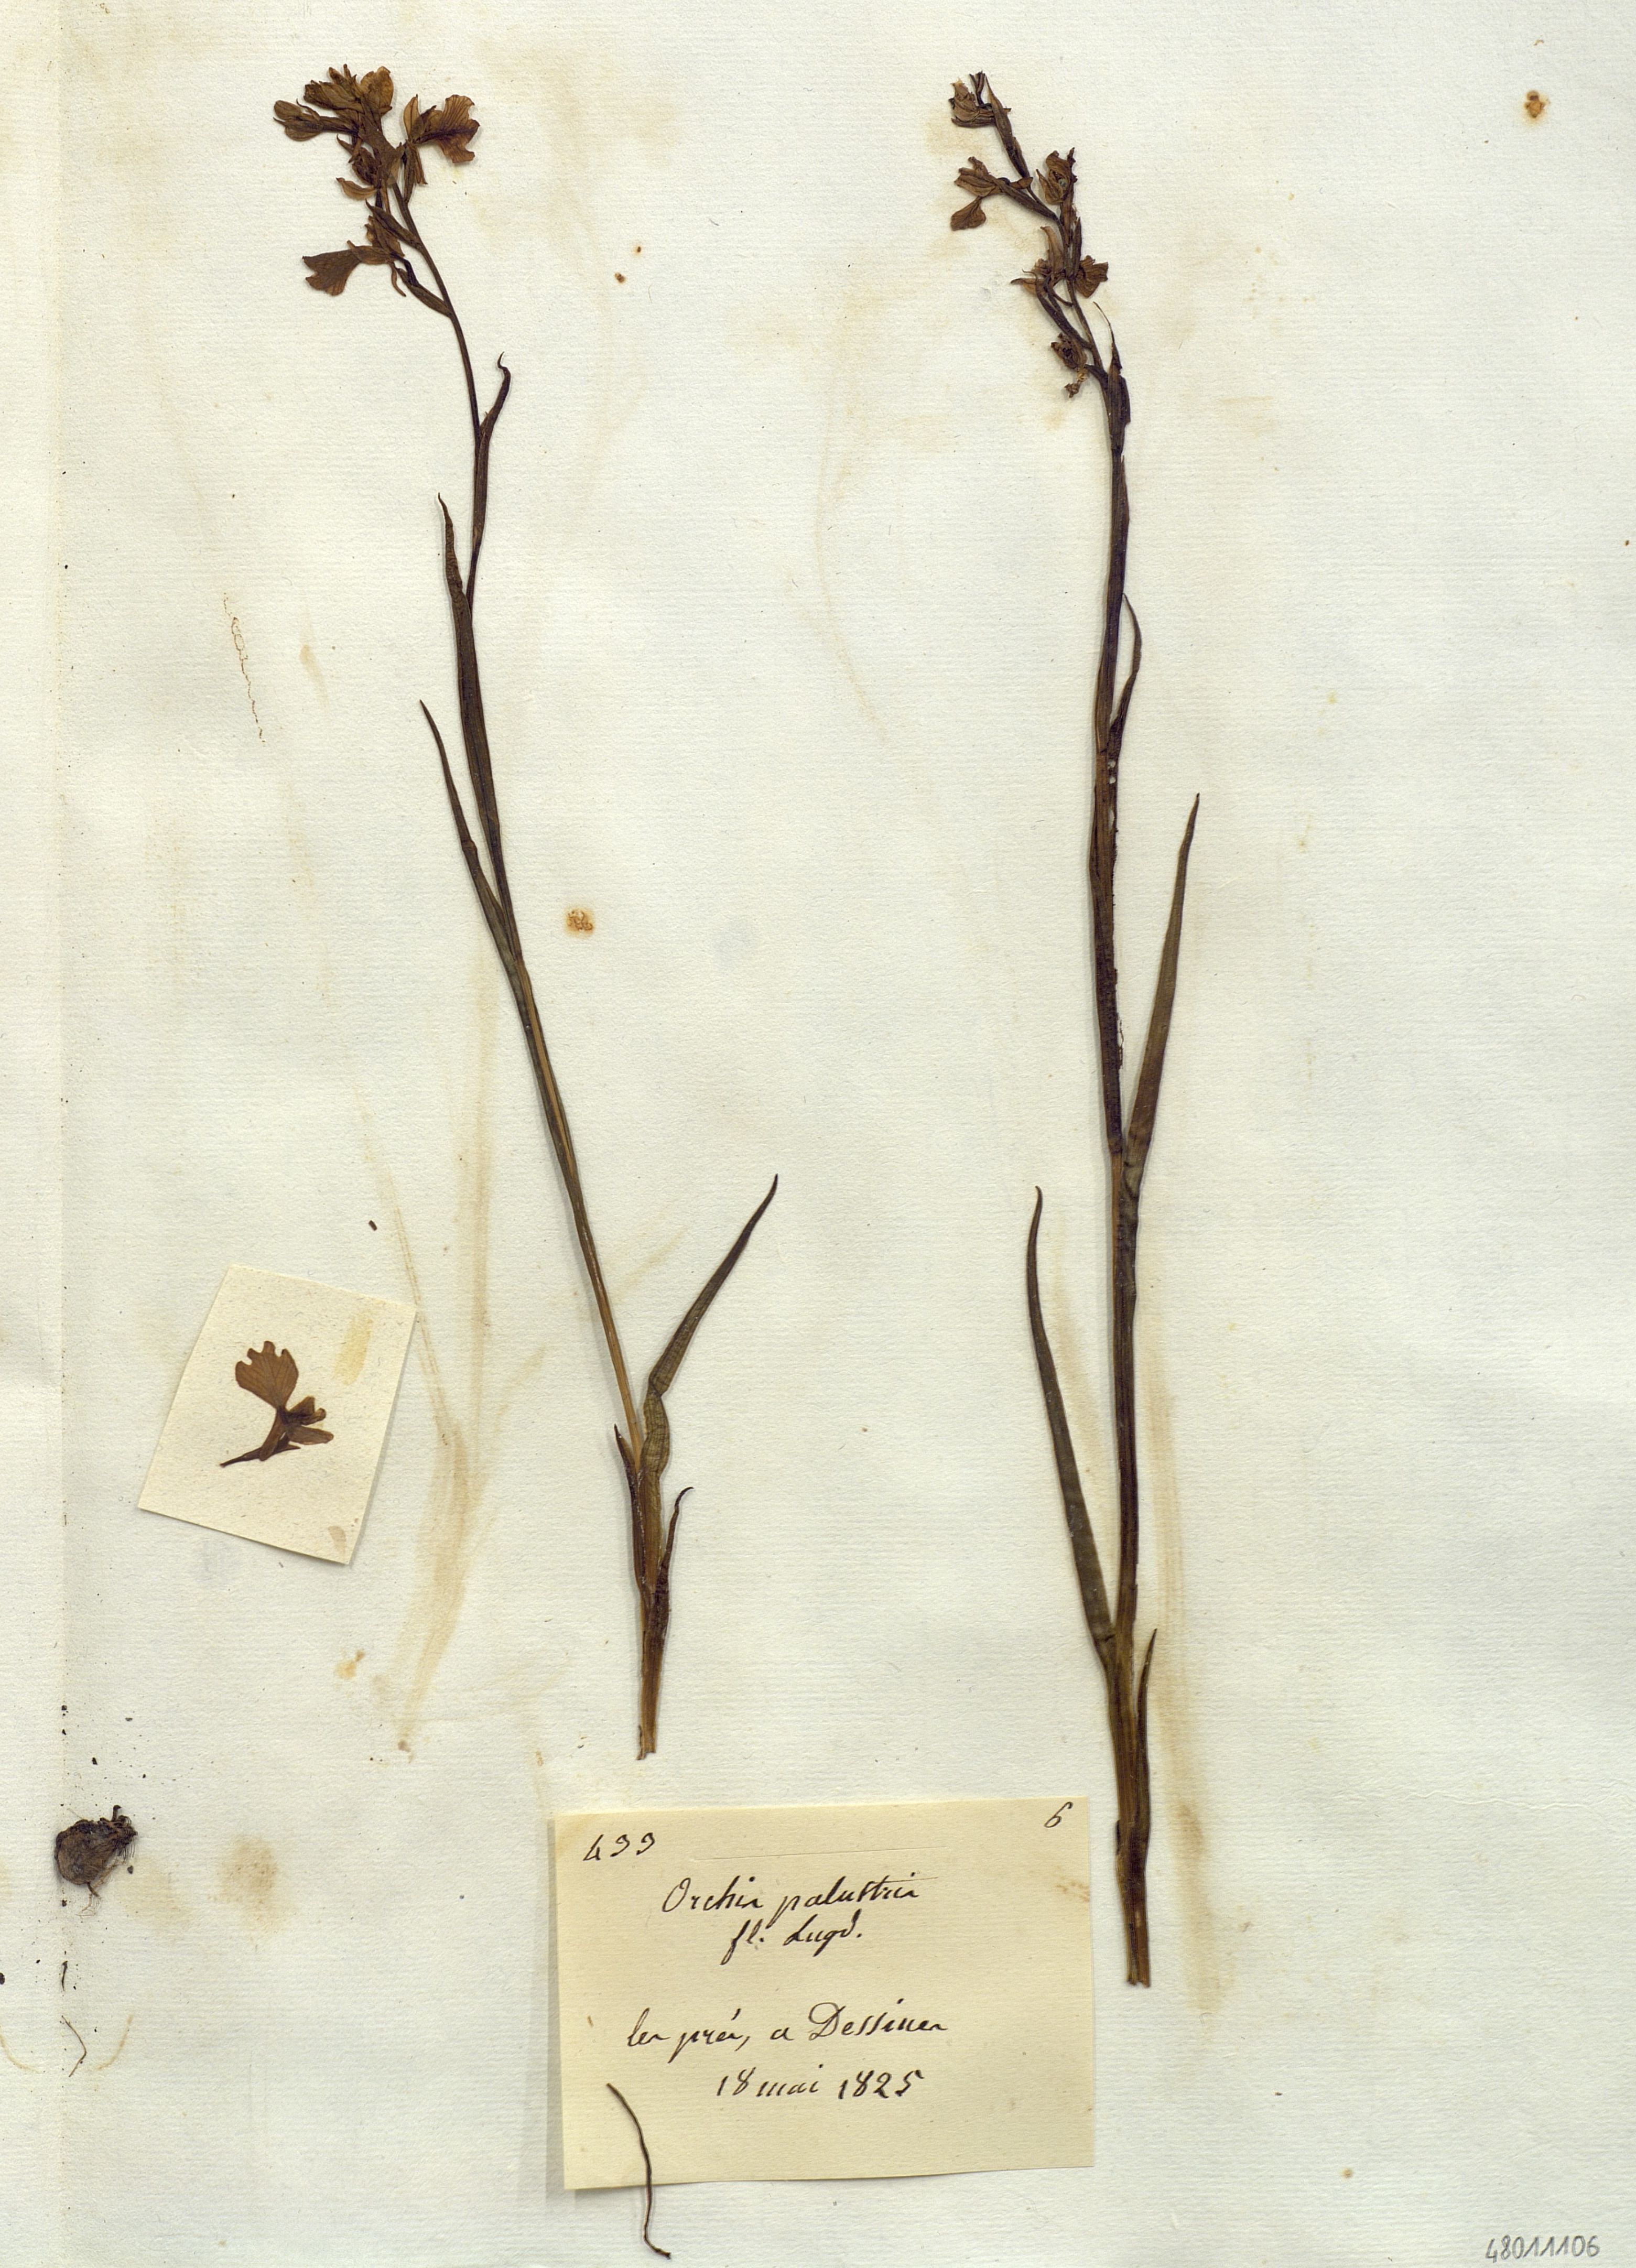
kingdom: Plantae
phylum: Tracheophyta
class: Liliopsida
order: Asparagales
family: Orchidaceae
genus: Anacamptis
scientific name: Anacamptis palustris
